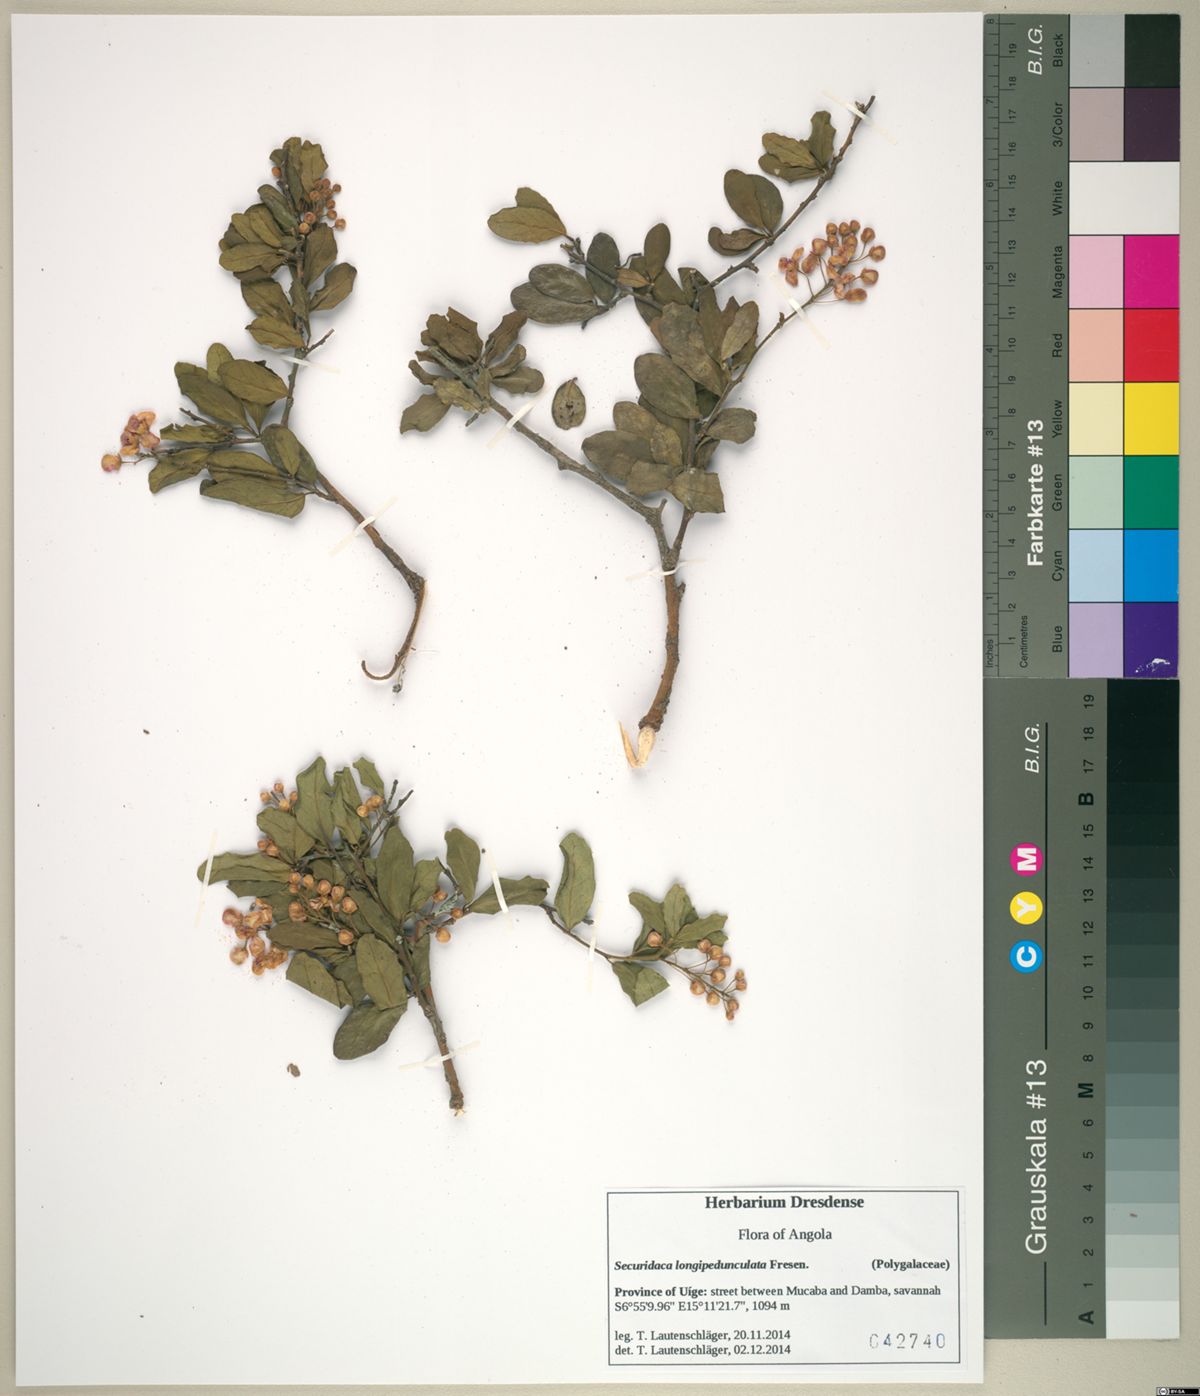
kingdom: Plantae
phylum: Tracheophyta
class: Magnoliopsida
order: Fabales
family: Polygalaceae
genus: Securidaca
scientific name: Securidaca longepedunculata
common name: Violet tree
